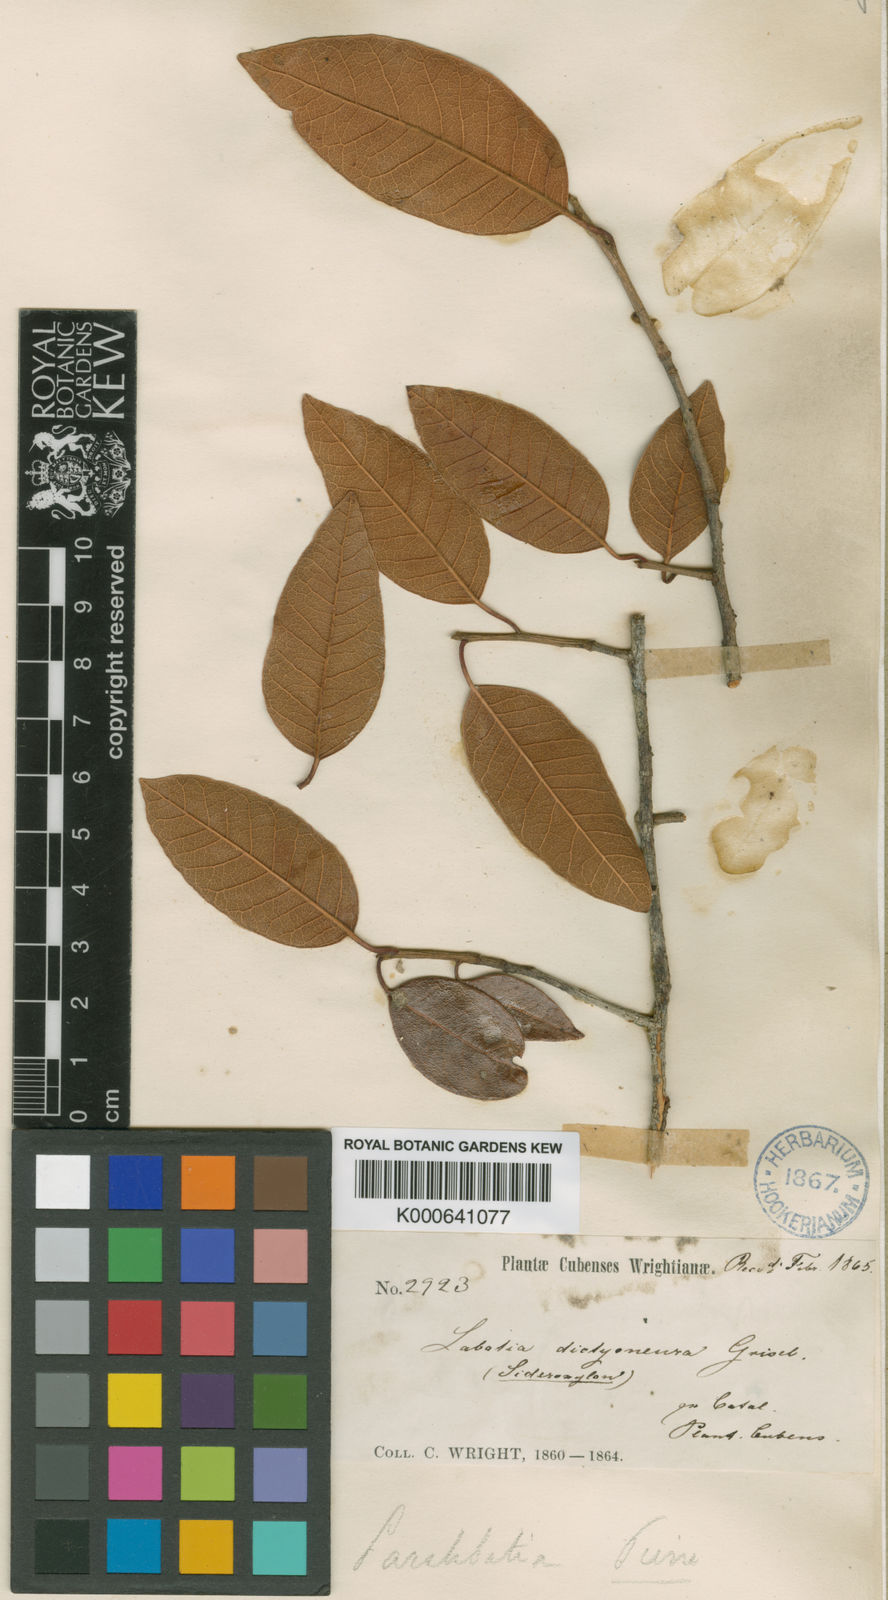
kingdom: Plantae
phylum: Tracheophyta
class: Magnoliopsida
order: Ericales
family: Sapotaceae
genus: Pouteria
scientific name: Pouteria dictyoneura
